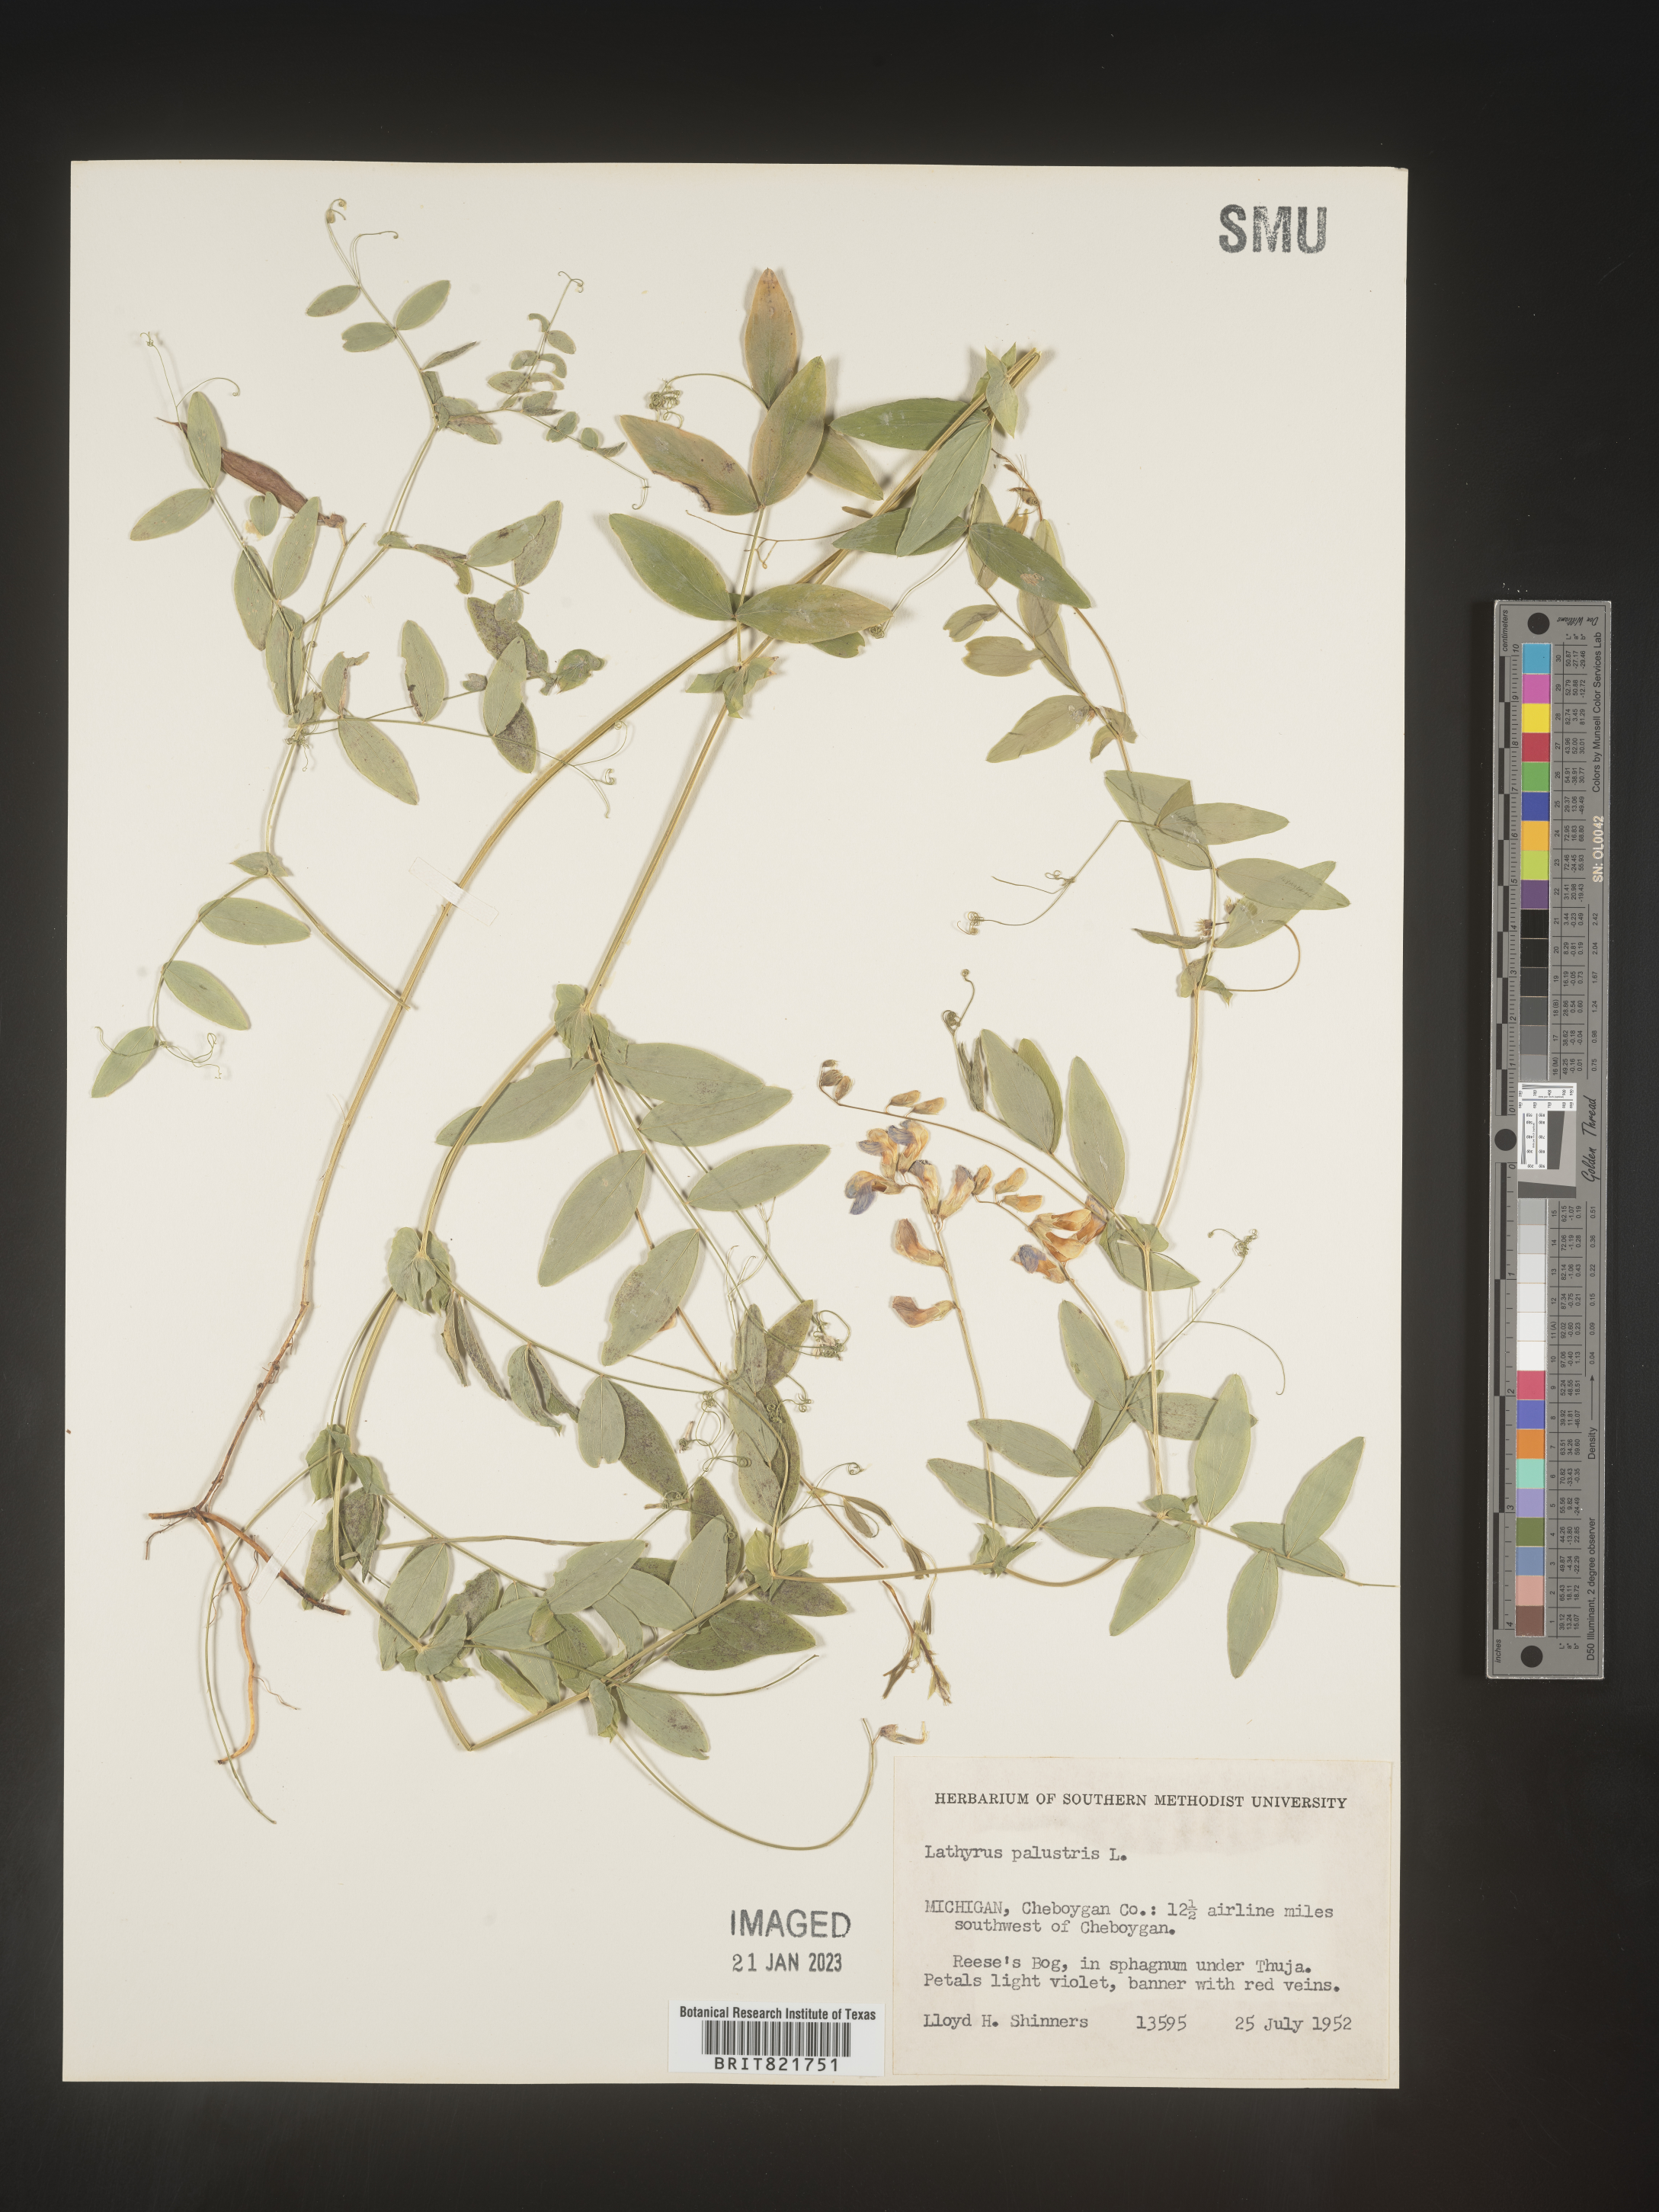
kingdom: Plantae
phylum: Tracheophyta
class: Magnoliopsida
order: Fabales
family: Fabaceae
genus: Lathyrus
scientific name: Lathyrus palustris
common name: Marsh pea
